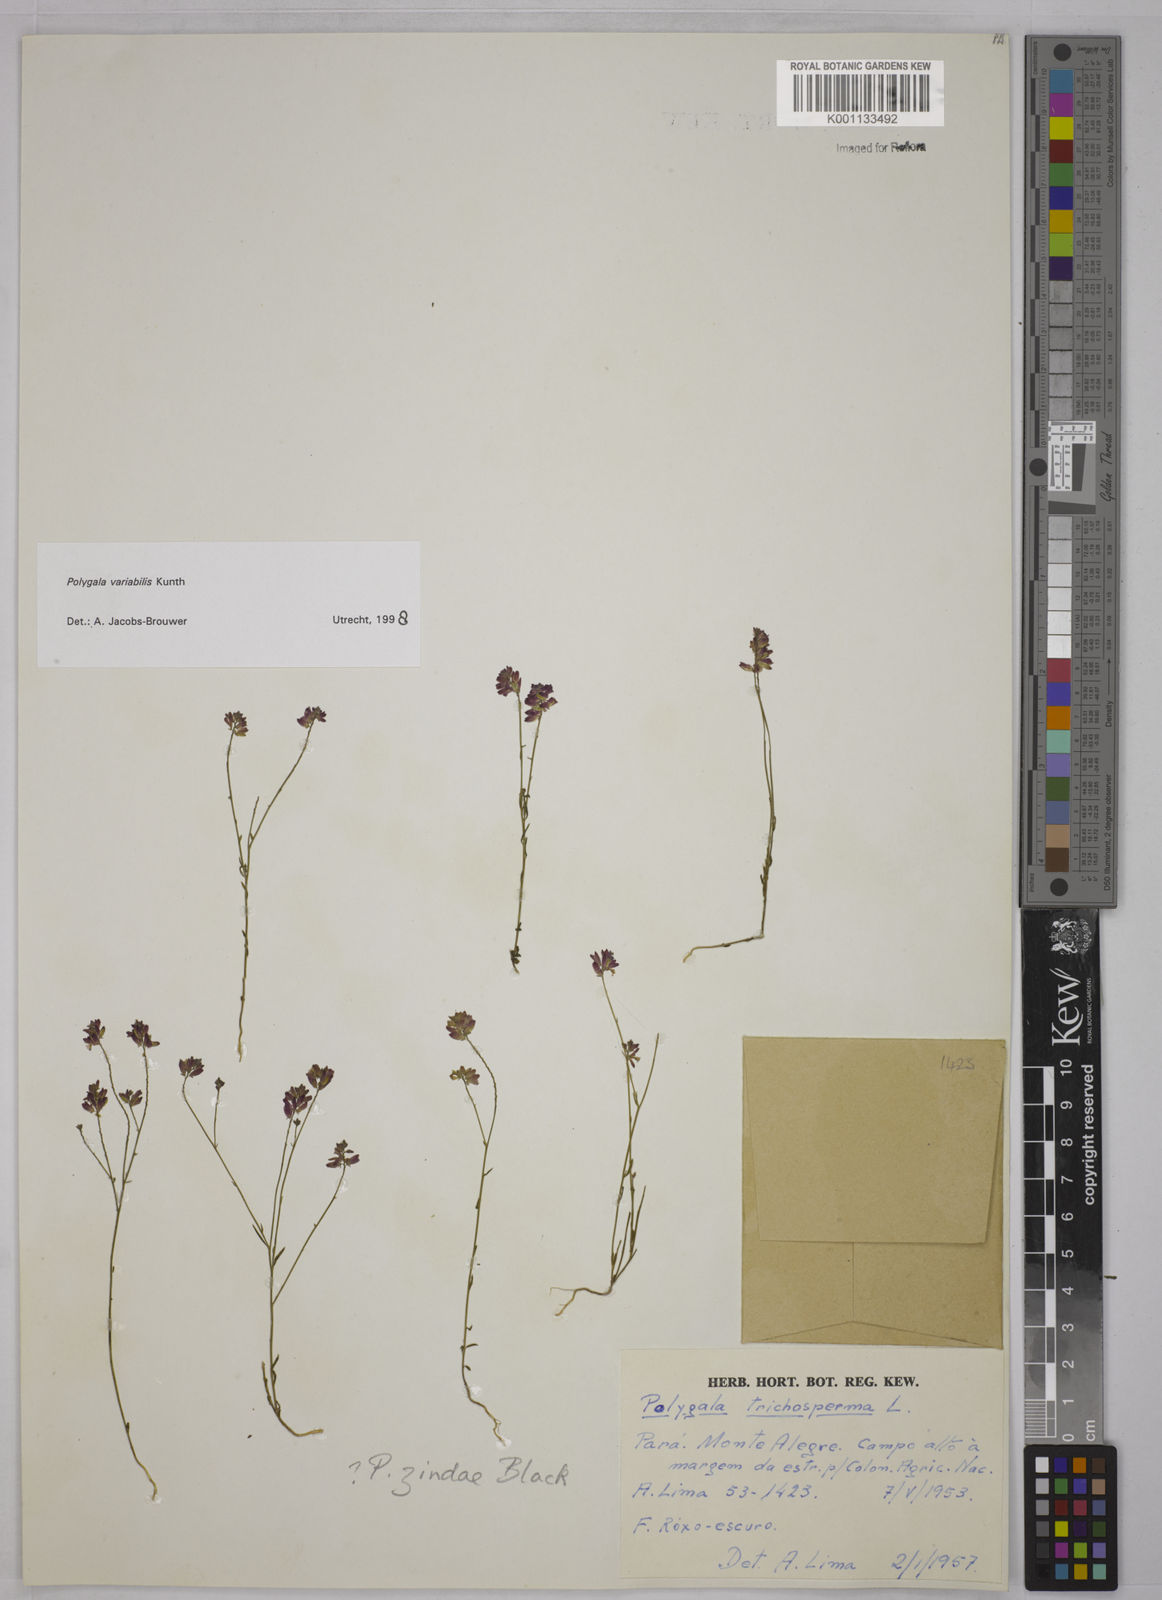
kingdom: Plantae
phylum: Tracheophyta
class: Magnoliopsida
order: Fabales
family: Polygalaceae
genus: Polygala
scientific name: Polygala trichosperma
